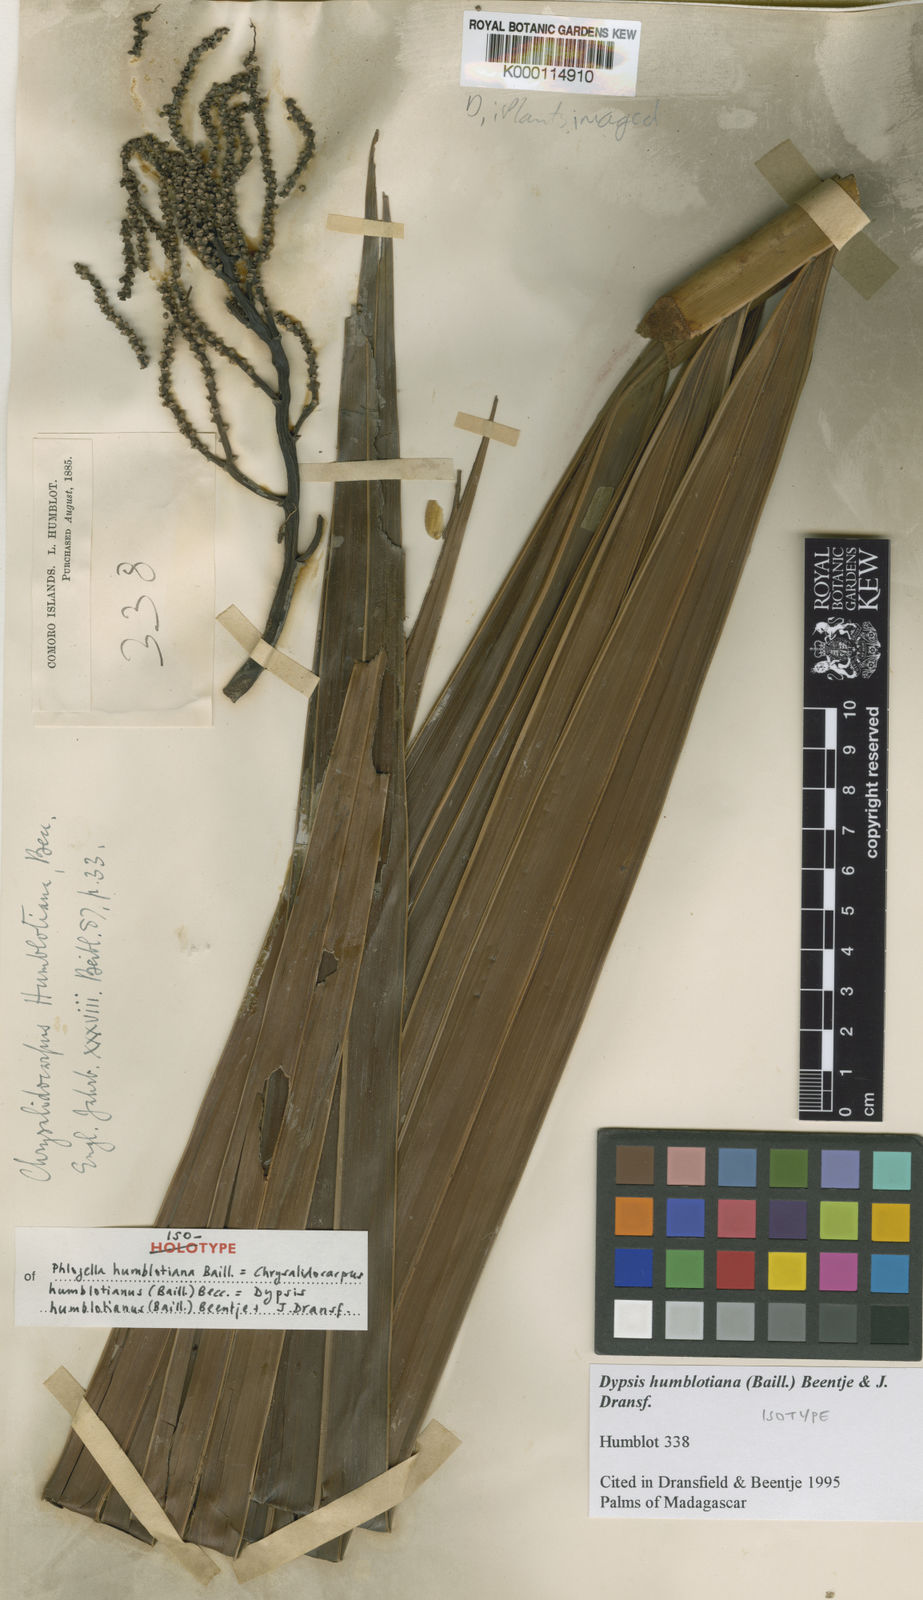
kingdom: Plantae
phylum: Tracheophyta
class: Liliopsida
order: Arecales
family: Arecaceae
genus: Dypsis
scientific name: Dypsis humblotiana
